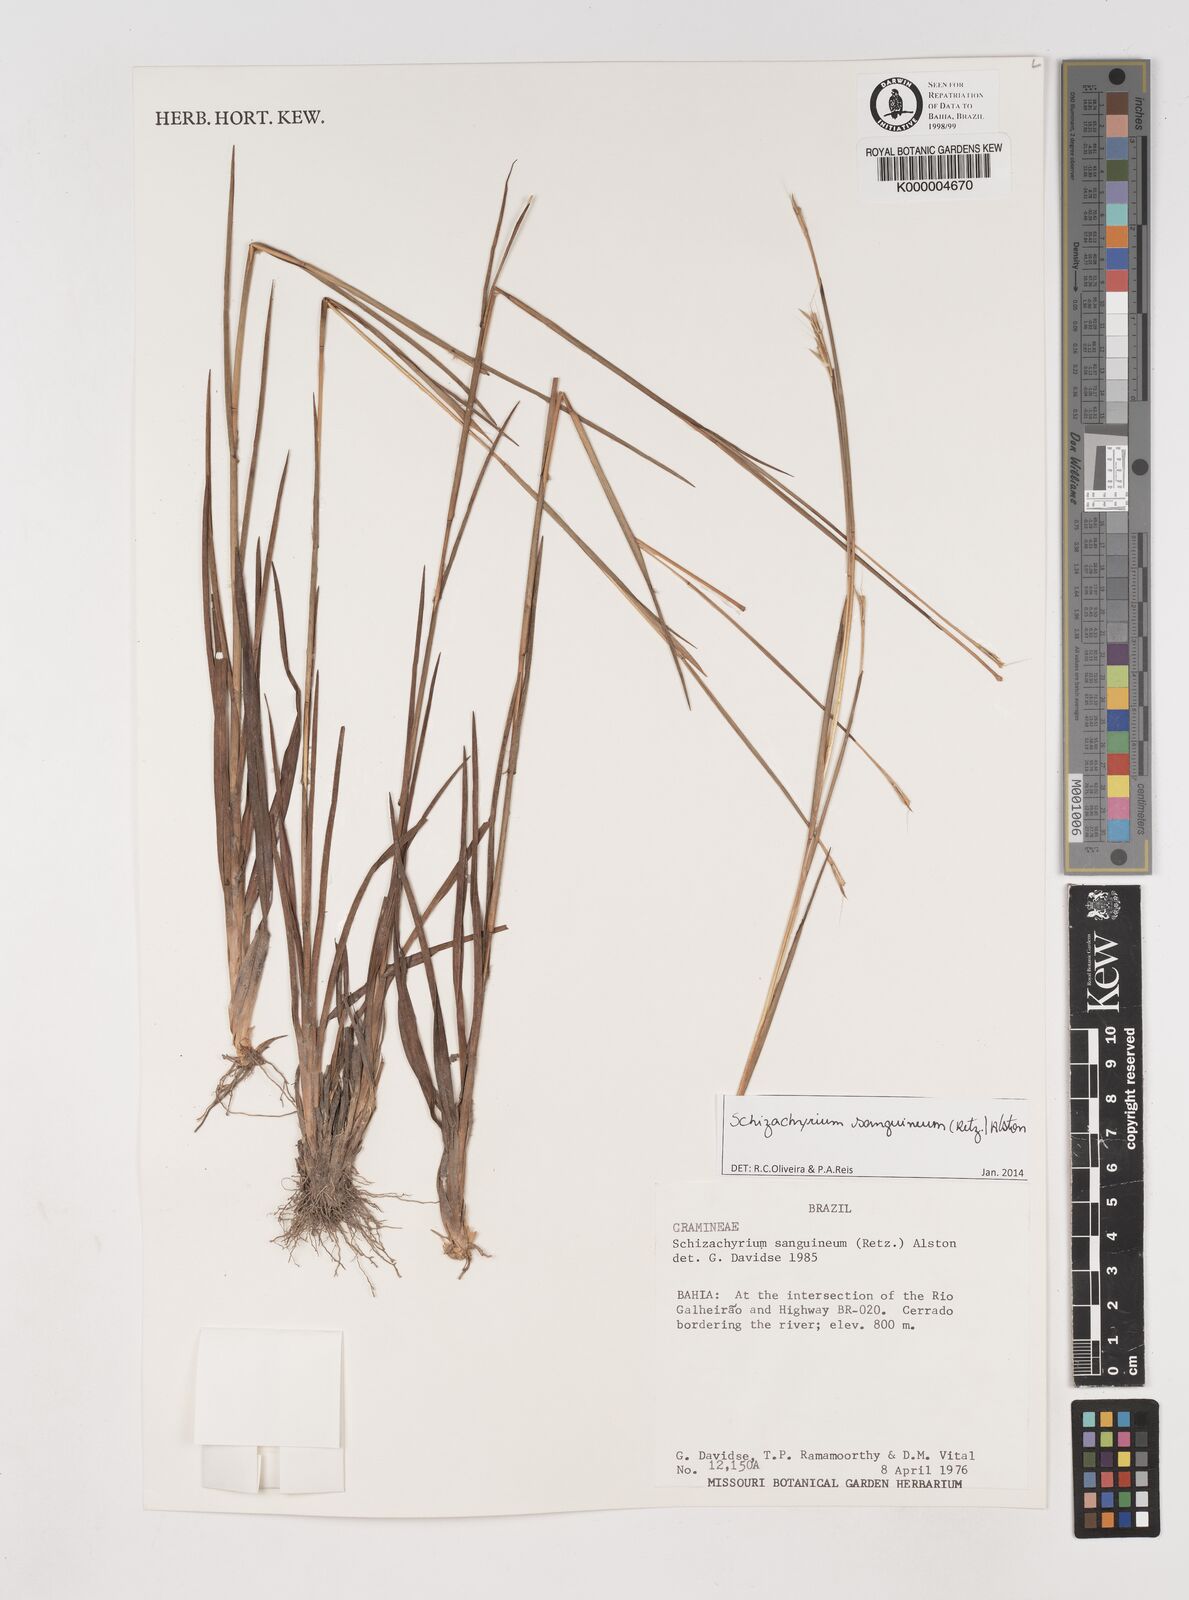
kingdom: Plantae
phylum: Tracheophyta
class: Liliopsida
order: Poales
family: Poaceae
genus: Schizachyrium
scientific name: Schizachyrium sanguineum
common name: Crimson bluestem
